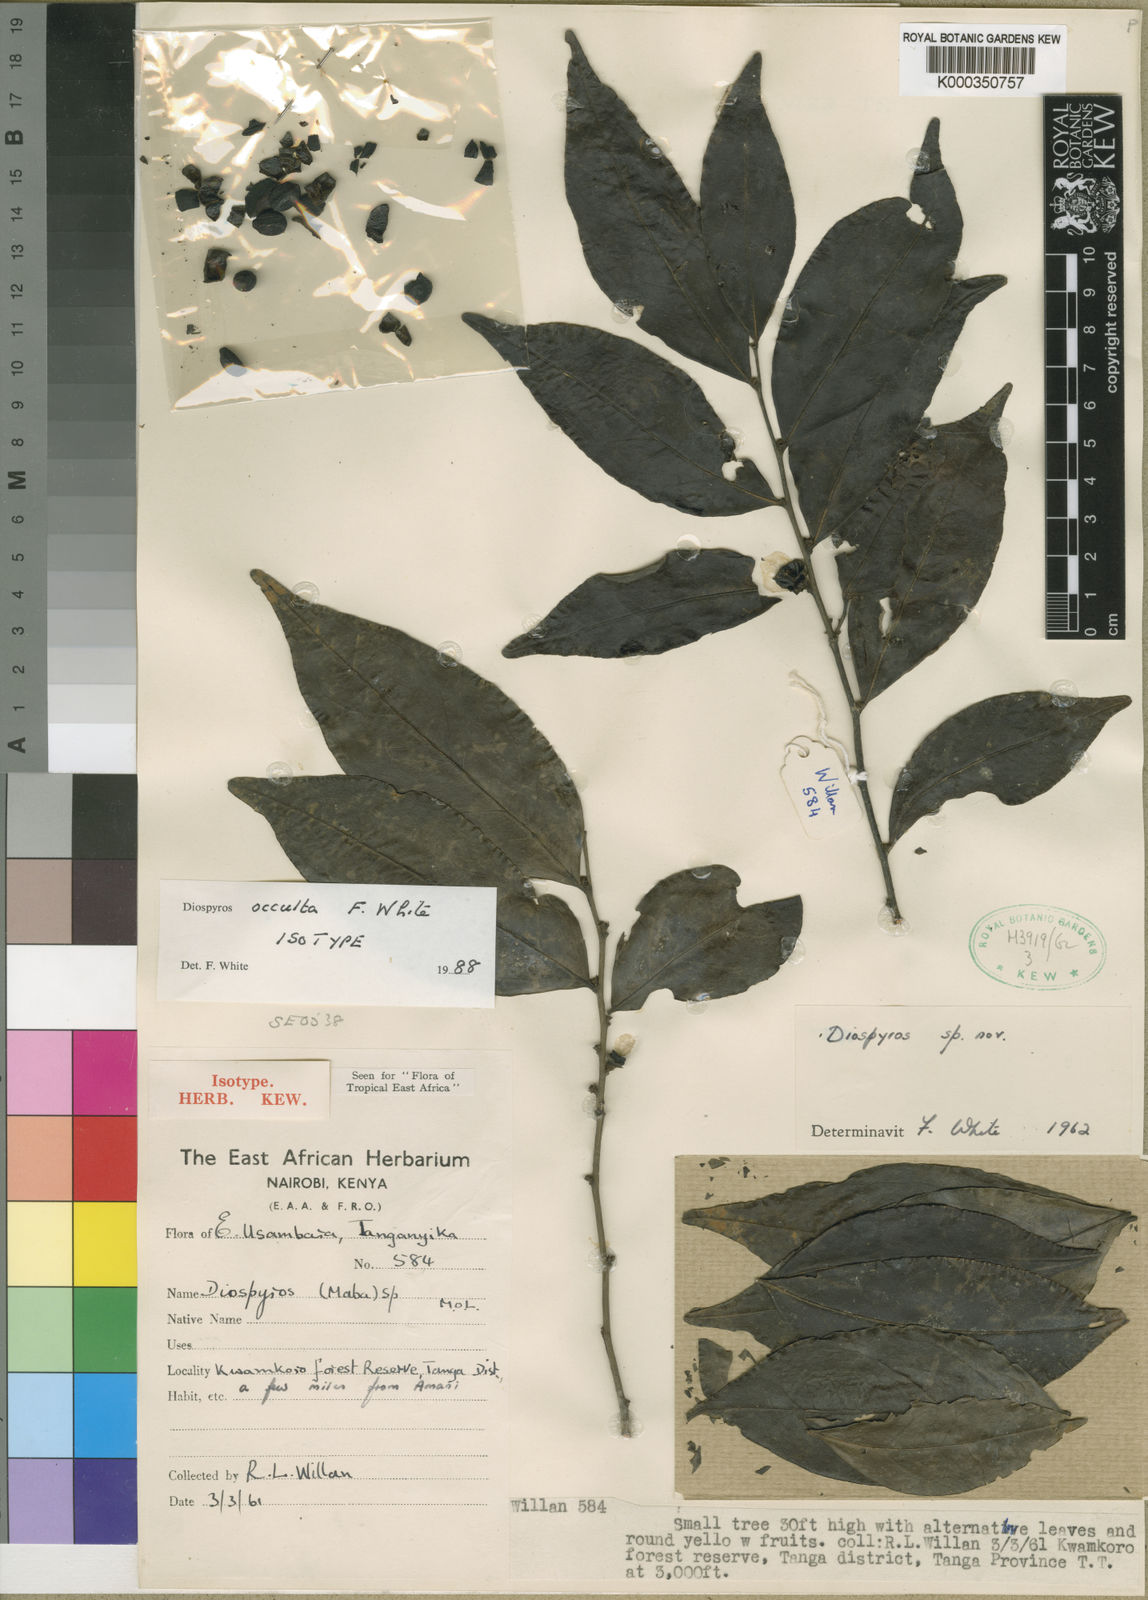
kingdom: Plantae
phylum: Tracheophyta
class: Magnoliopsida
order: Ericales
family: Ebenaceae
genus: Diospyros
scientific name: Diospyros occulta
